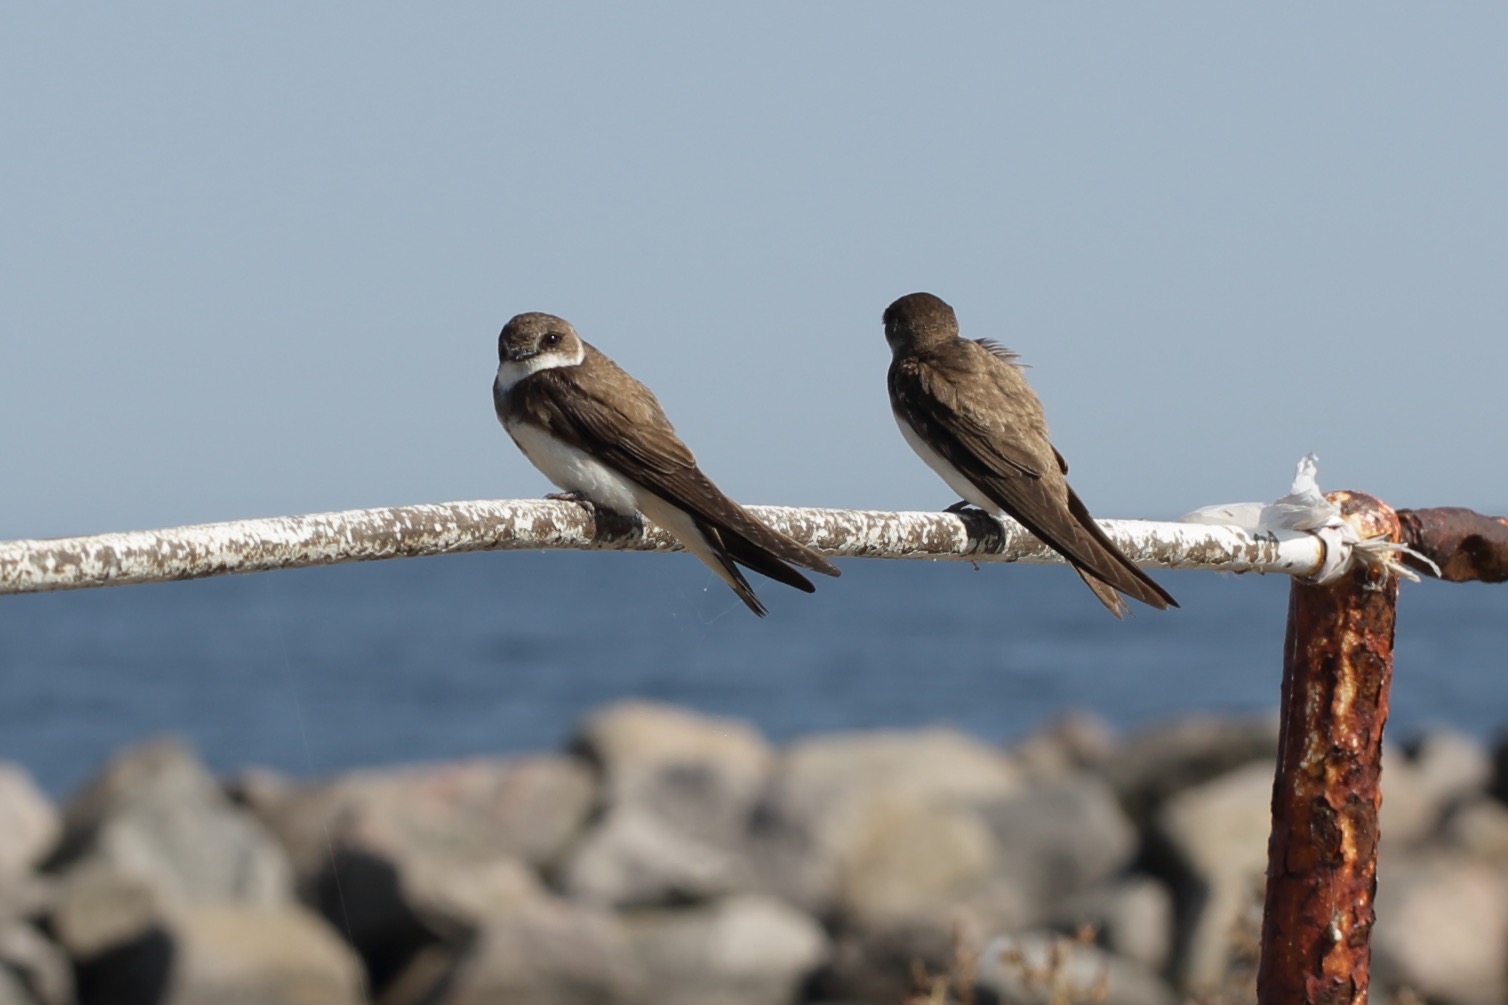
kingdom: Animalia
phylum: Chordata
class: Aves
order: Passeriformes
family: Hirundinidae
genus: Riparia
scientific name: Riparia riparia
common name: Digesvale
